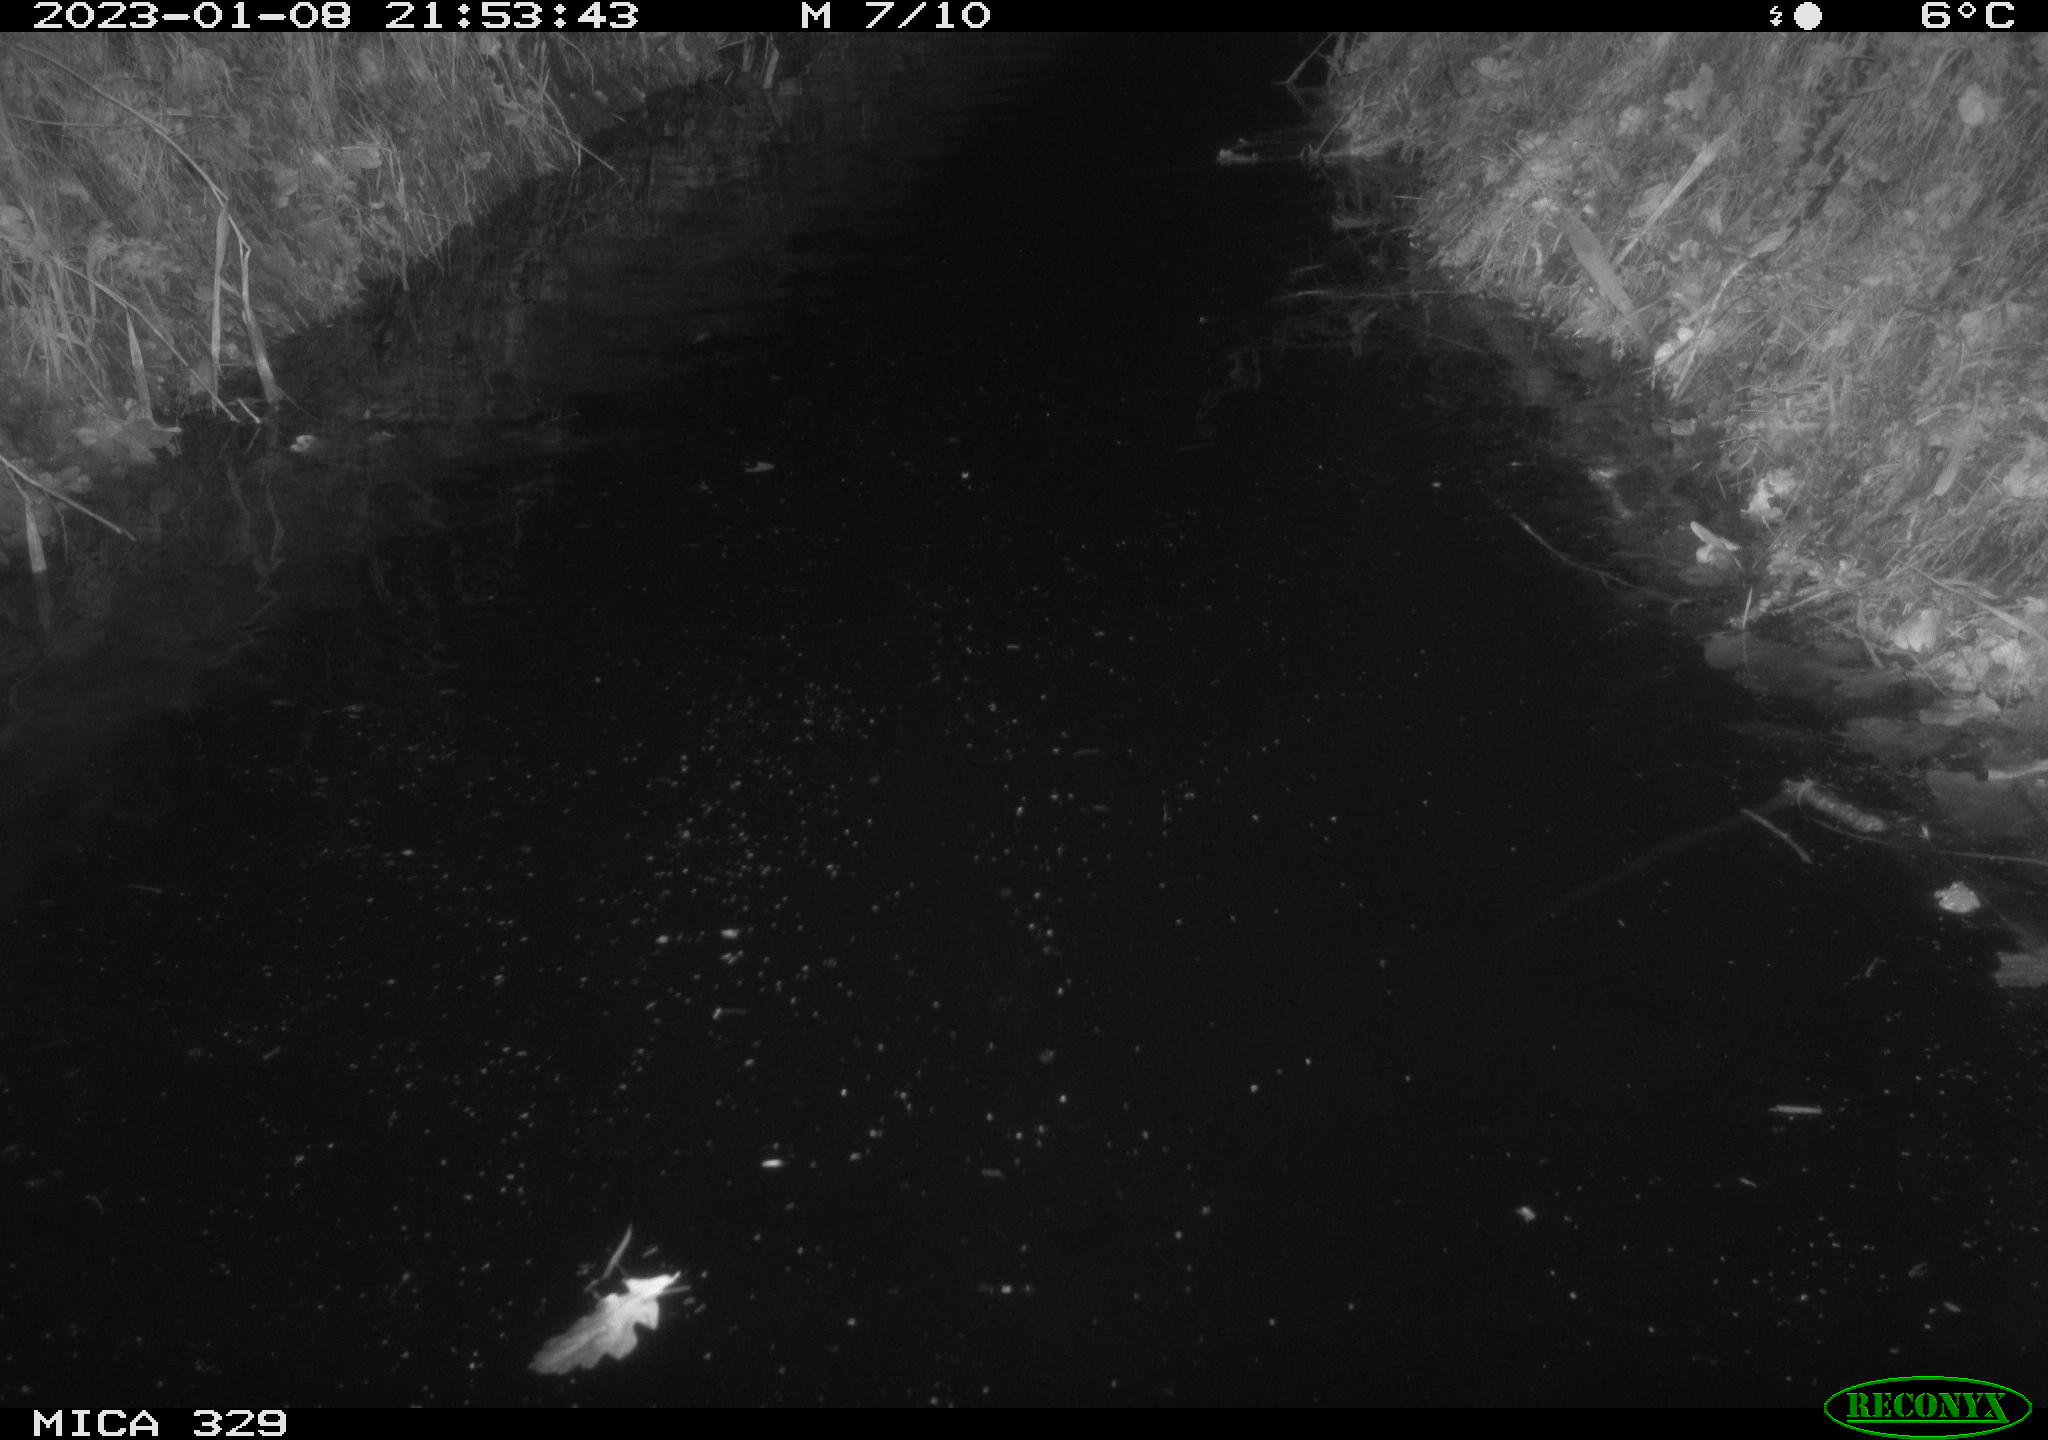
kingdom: Animalia
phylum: Chordata
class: Mammalia
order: Rodentia
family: Cricetidae
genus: Ondatra
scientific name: Ondatra zibethicus
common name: Muskrat
